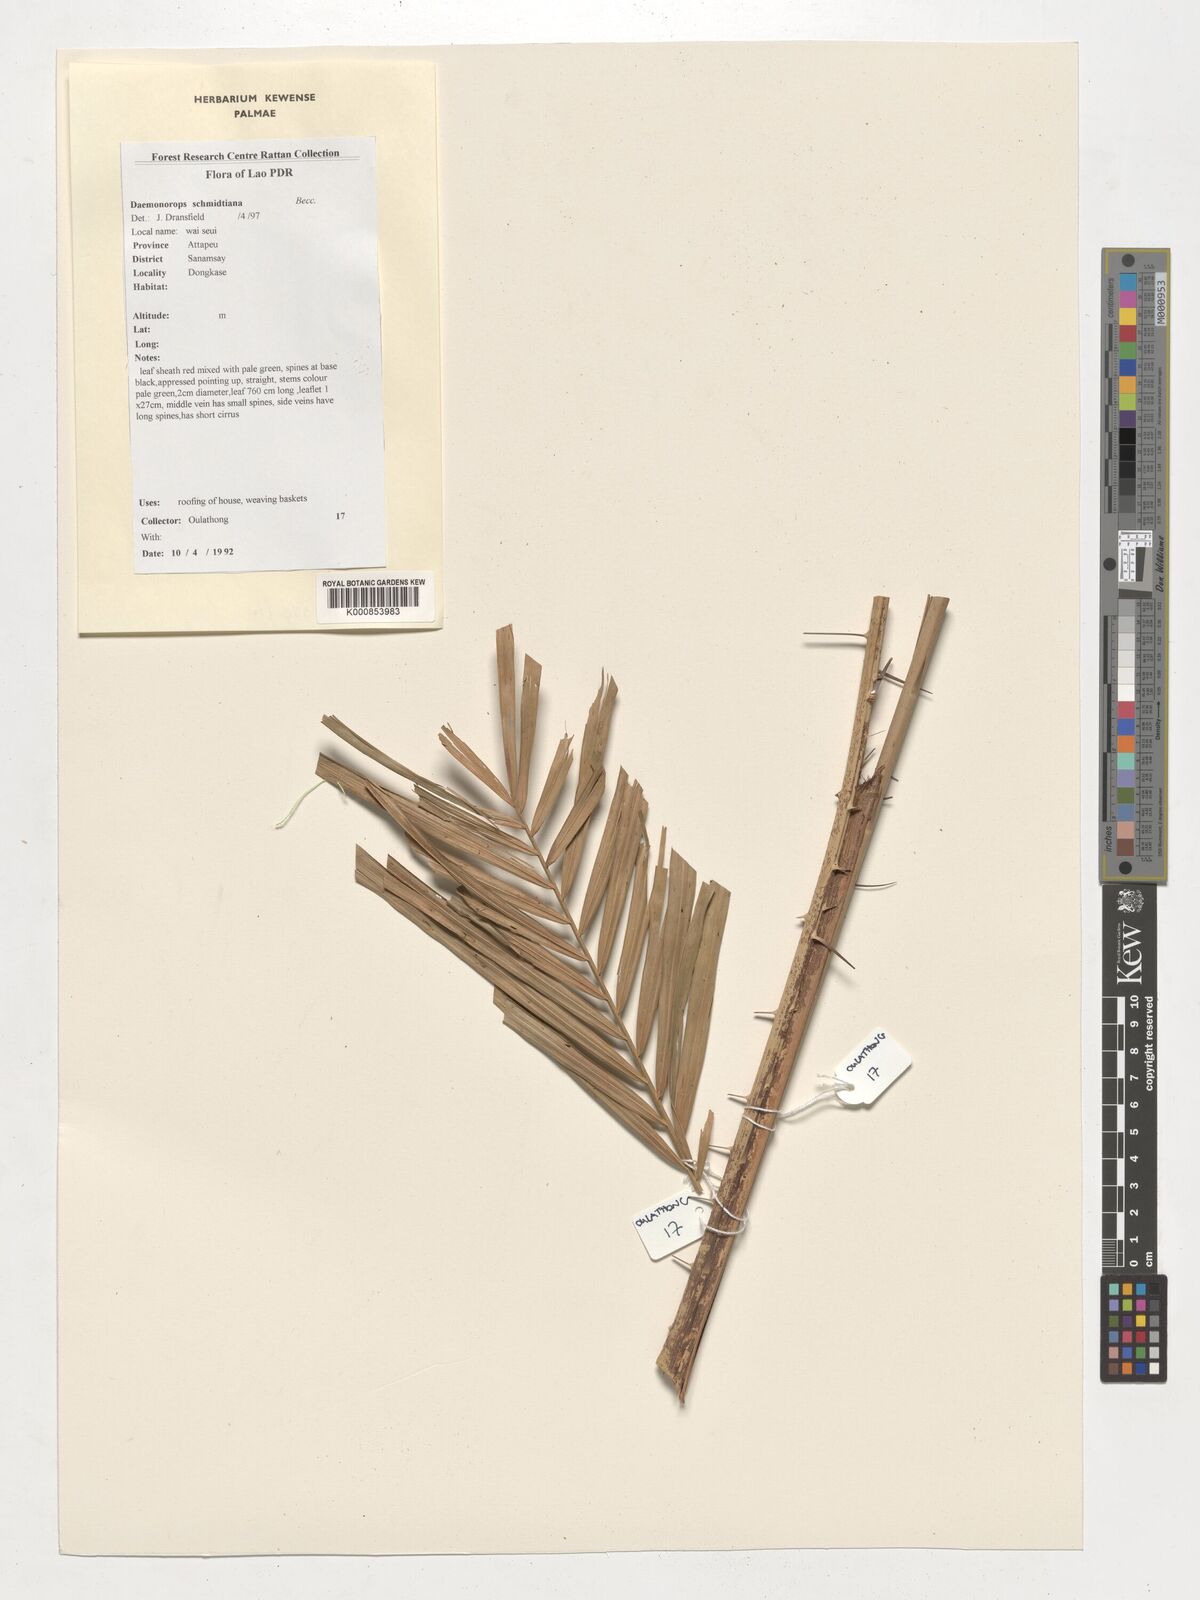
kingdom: Plantae
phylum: Tracheophyta
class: Liliopsida
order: Arecales
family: Arecaceae
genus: Daemonorops
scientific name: Daemonorops
